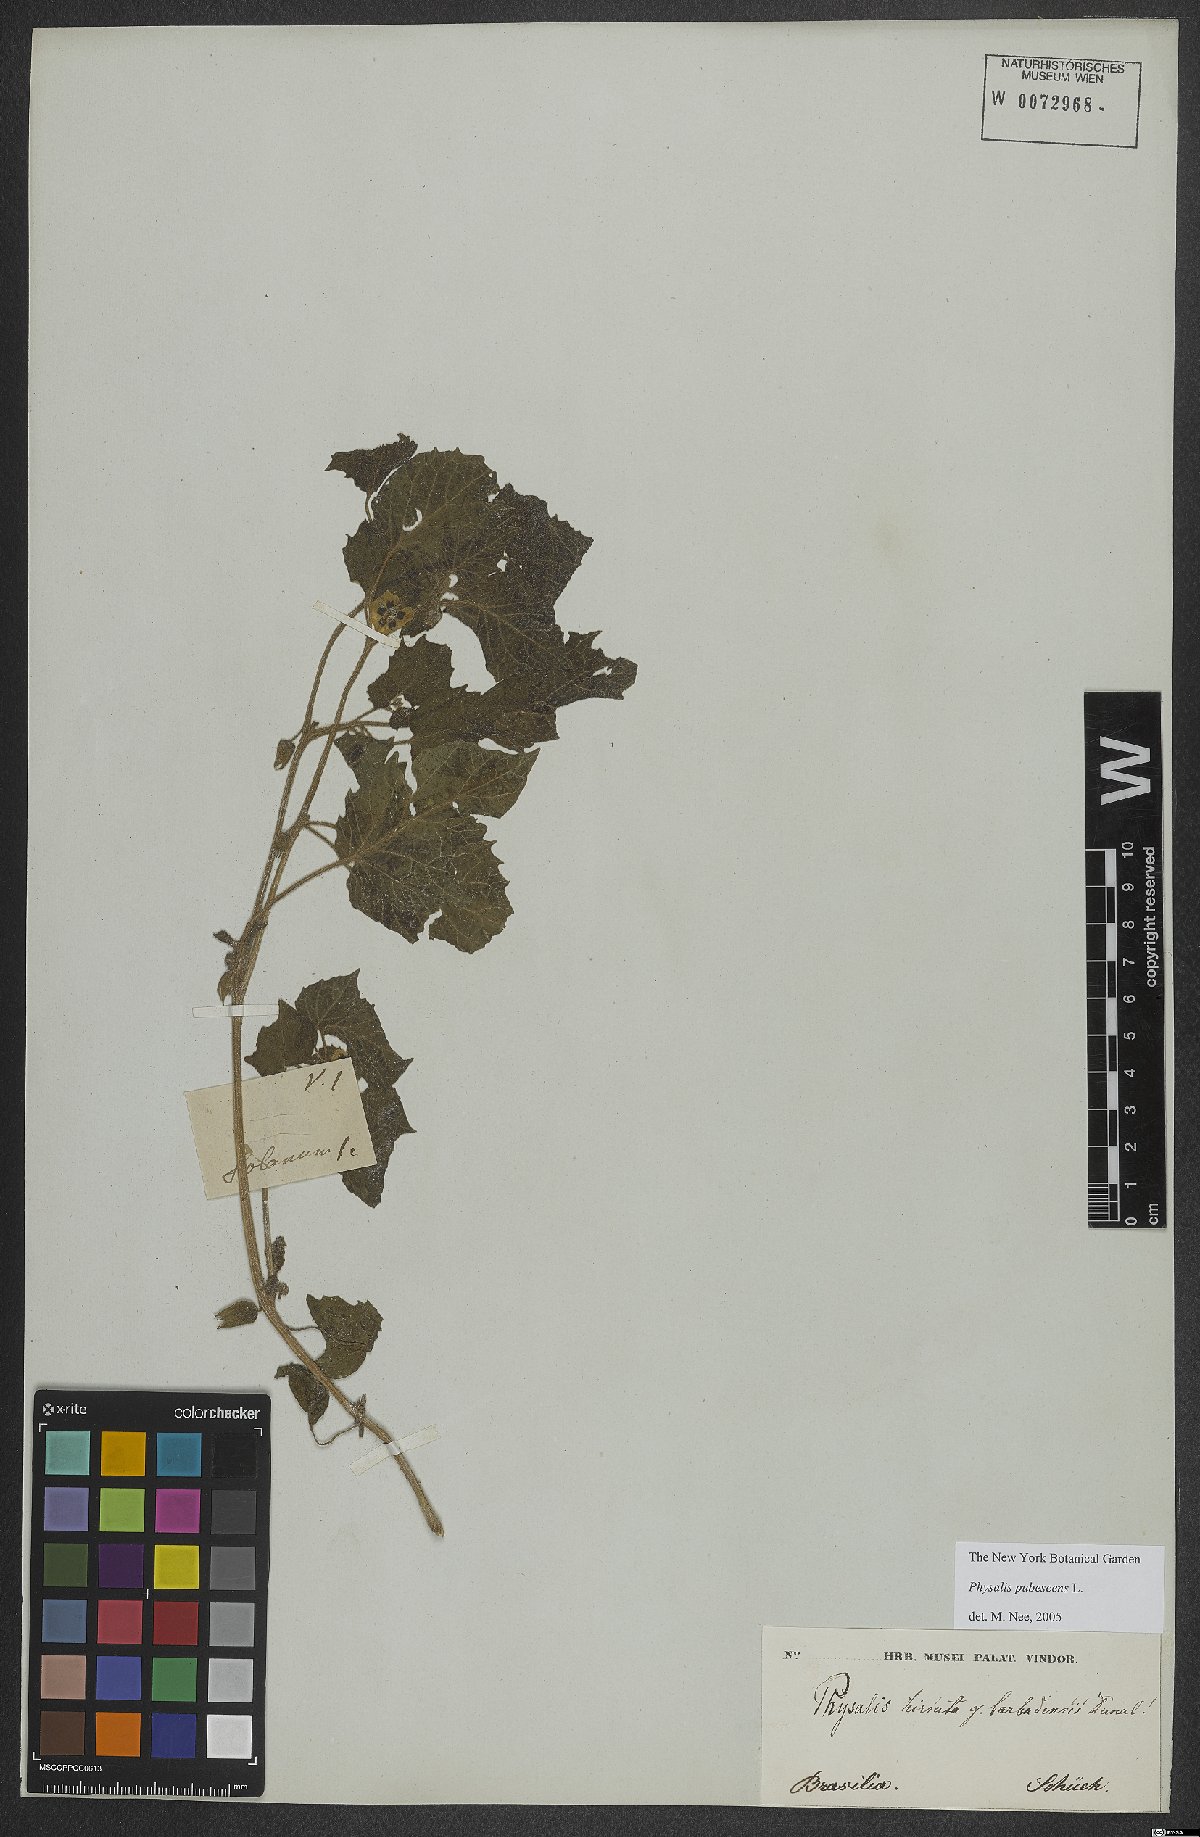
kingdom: Plantae
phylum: Tracheophyta
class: Magnoliopsida
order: Solanales
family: Solanaceae
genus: Physalis
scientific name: Physalis pubescens
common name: Downy ground-cherry
